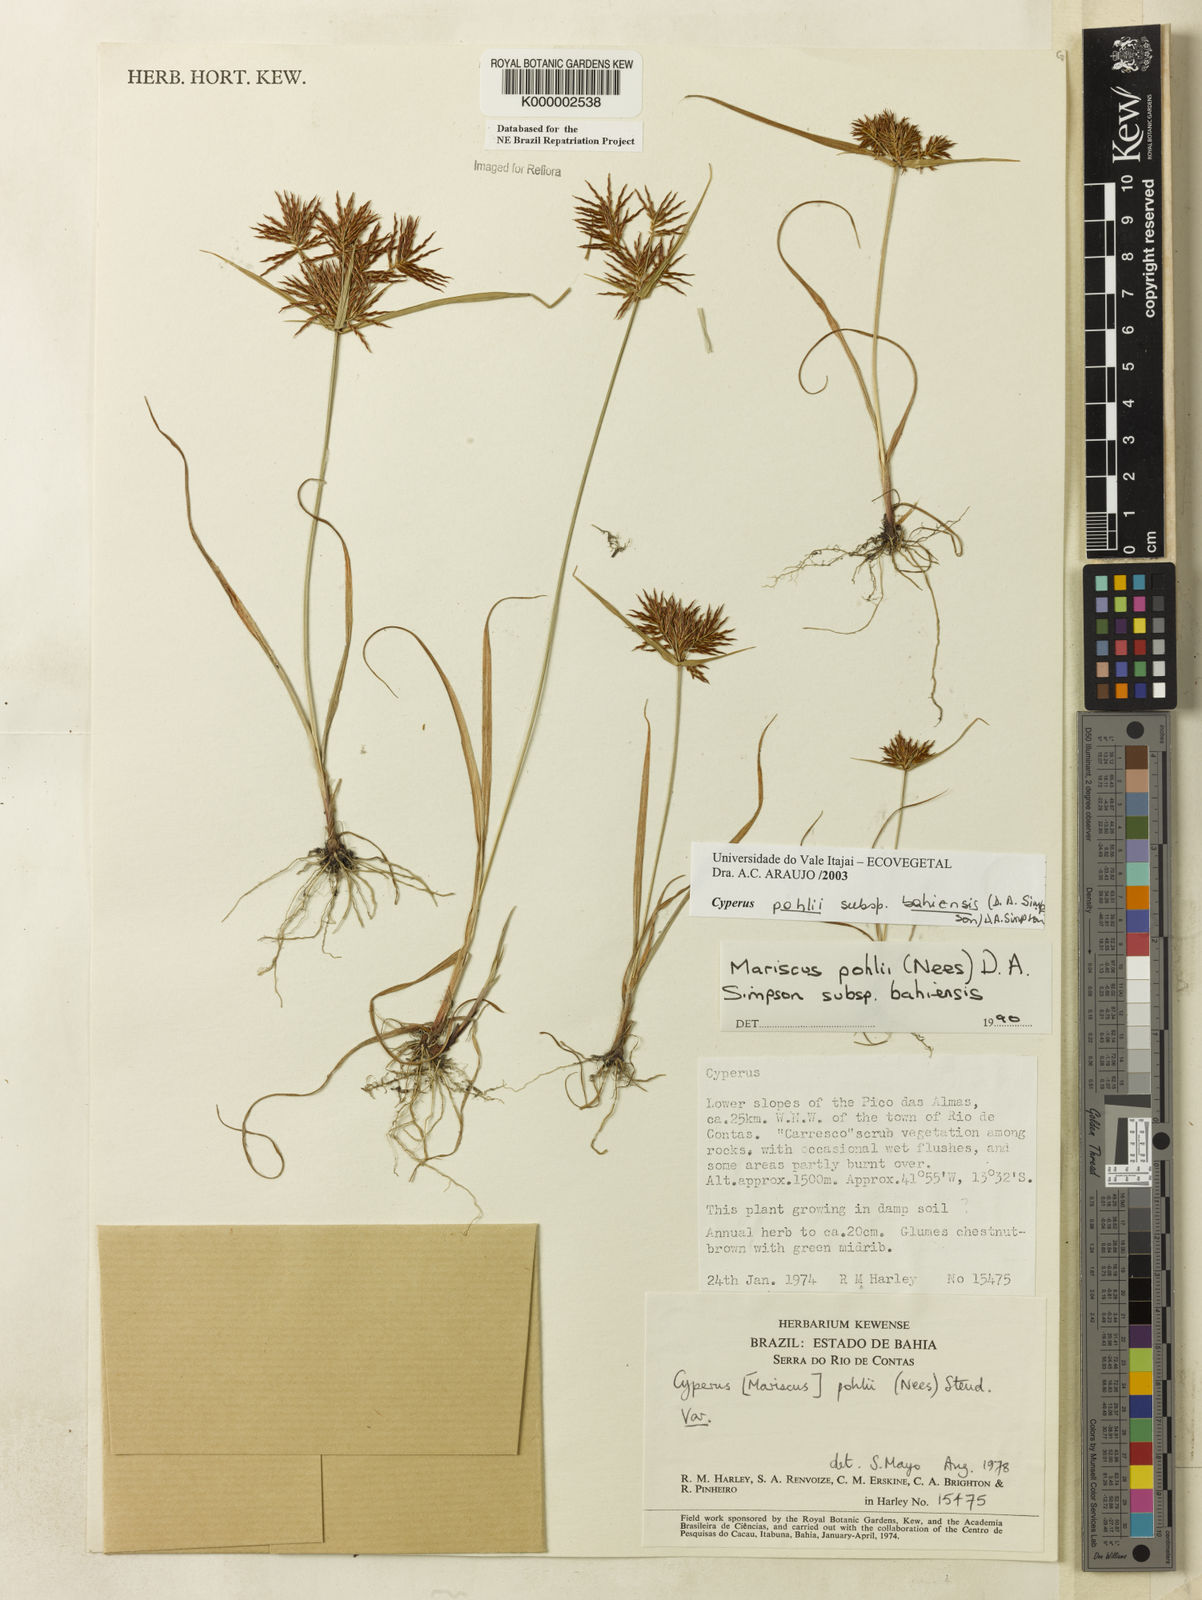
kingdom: Plantae
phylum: Tracheophyta
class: Liliopsida
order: Poales
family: Cyperaceae
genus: Cyperus
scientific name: Cyperus pohlii
